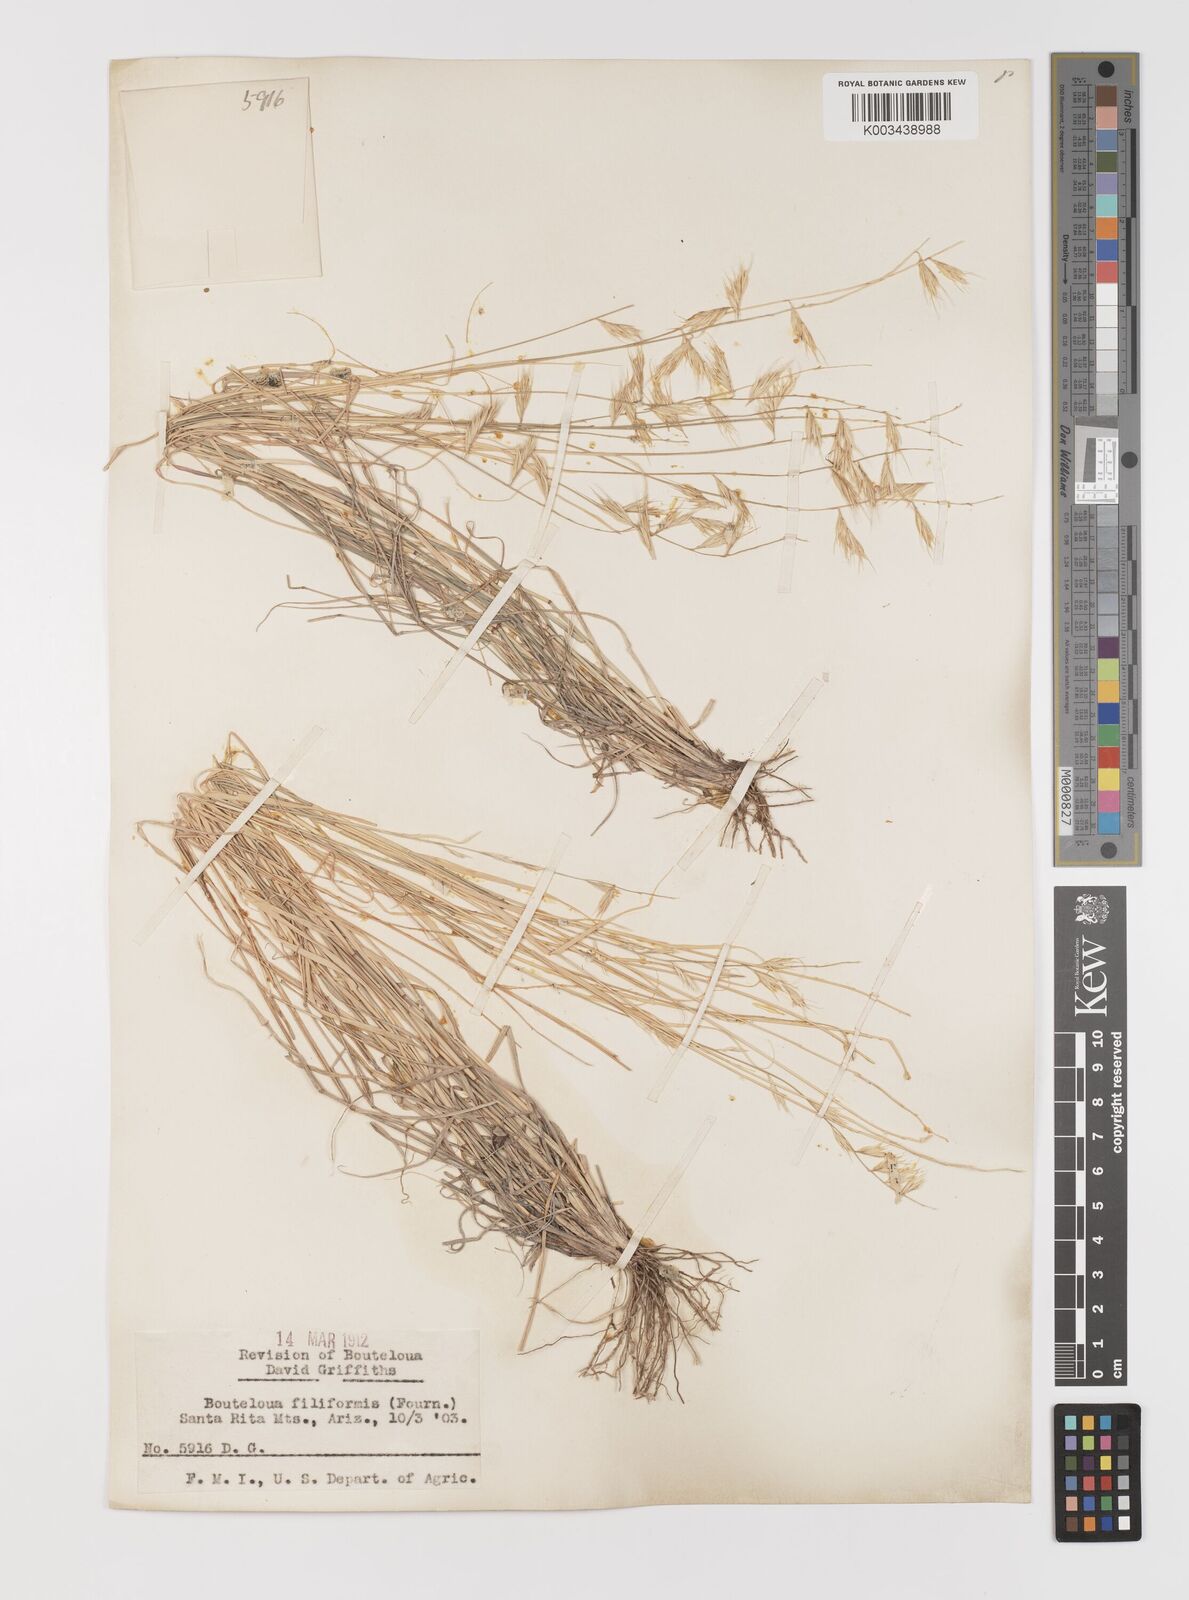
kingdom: Plantae
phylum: Tracheophyta
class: Liliopsida
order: Poales
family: Poaceae
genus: Bouteloua
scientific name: Bouteloua repens
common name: Slender grama
